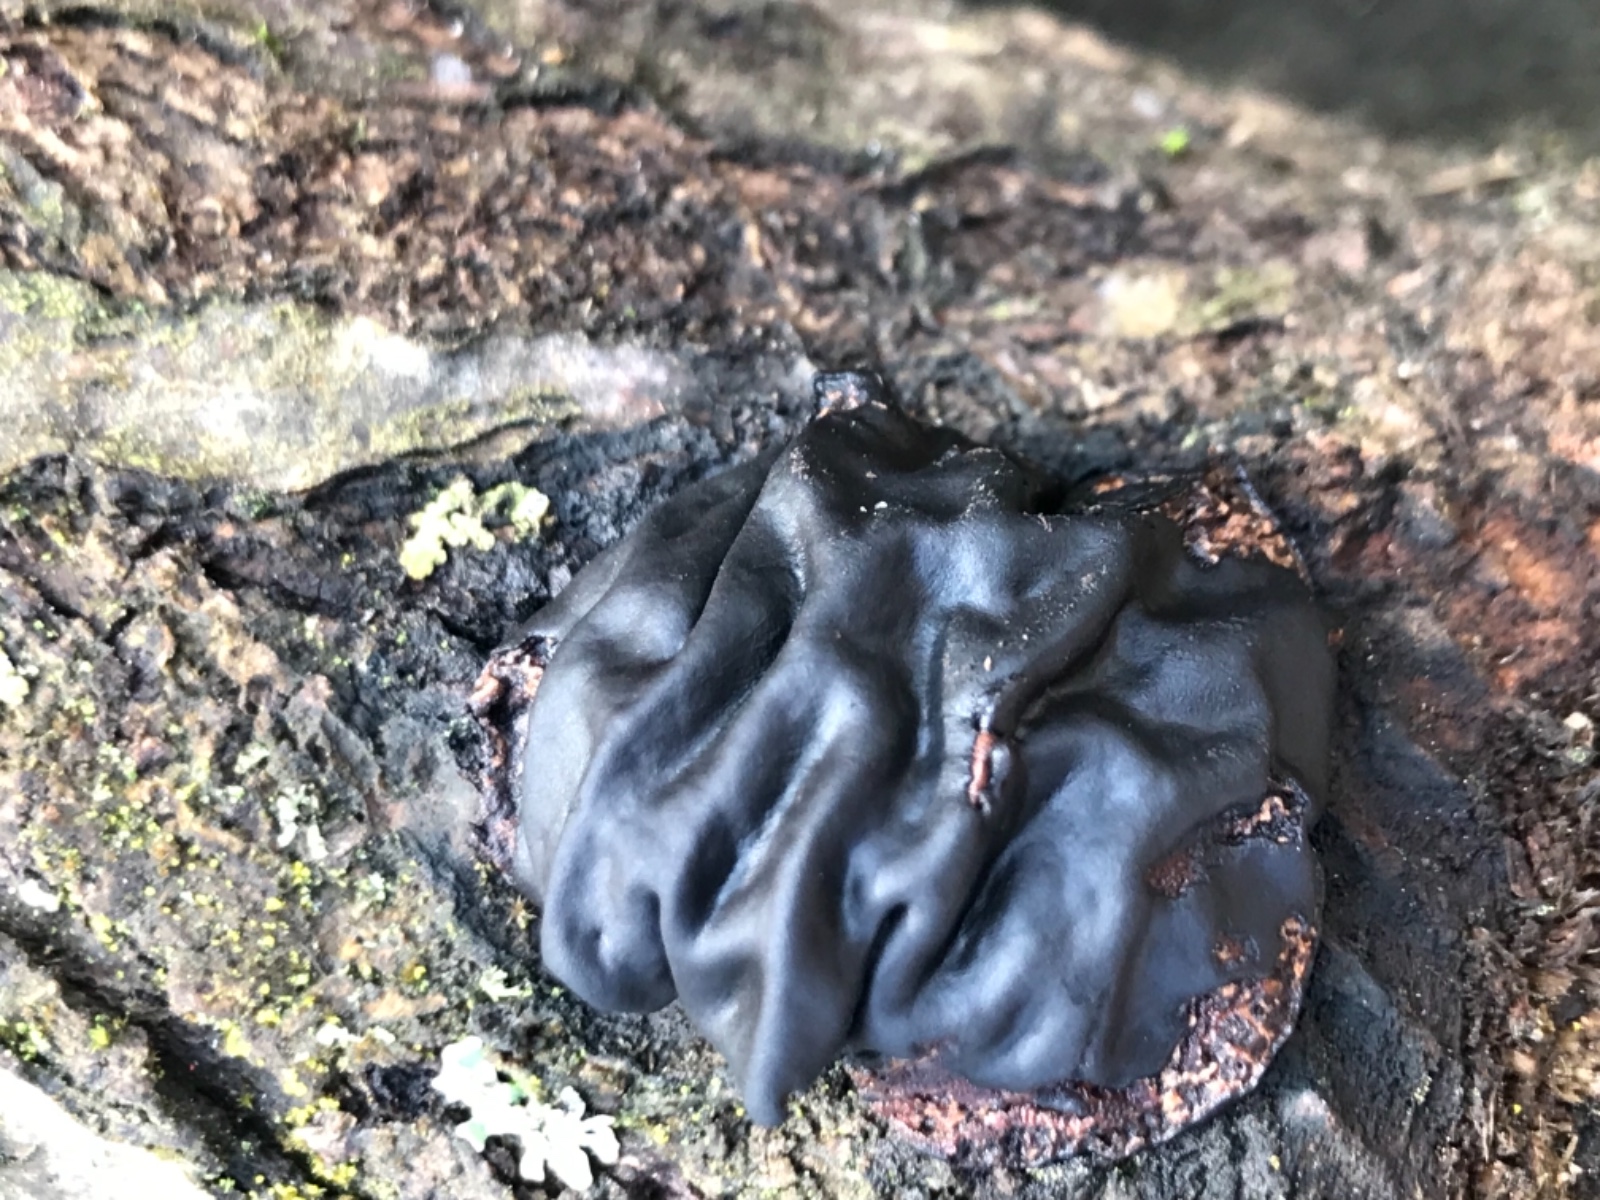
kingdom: Fungi
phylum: Basidiomycota
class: Agaricomycetes
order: Auriculariales
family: Auriculariaceae
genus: Exidia
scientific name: Exidia nigricans
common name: almindelig bævretop
